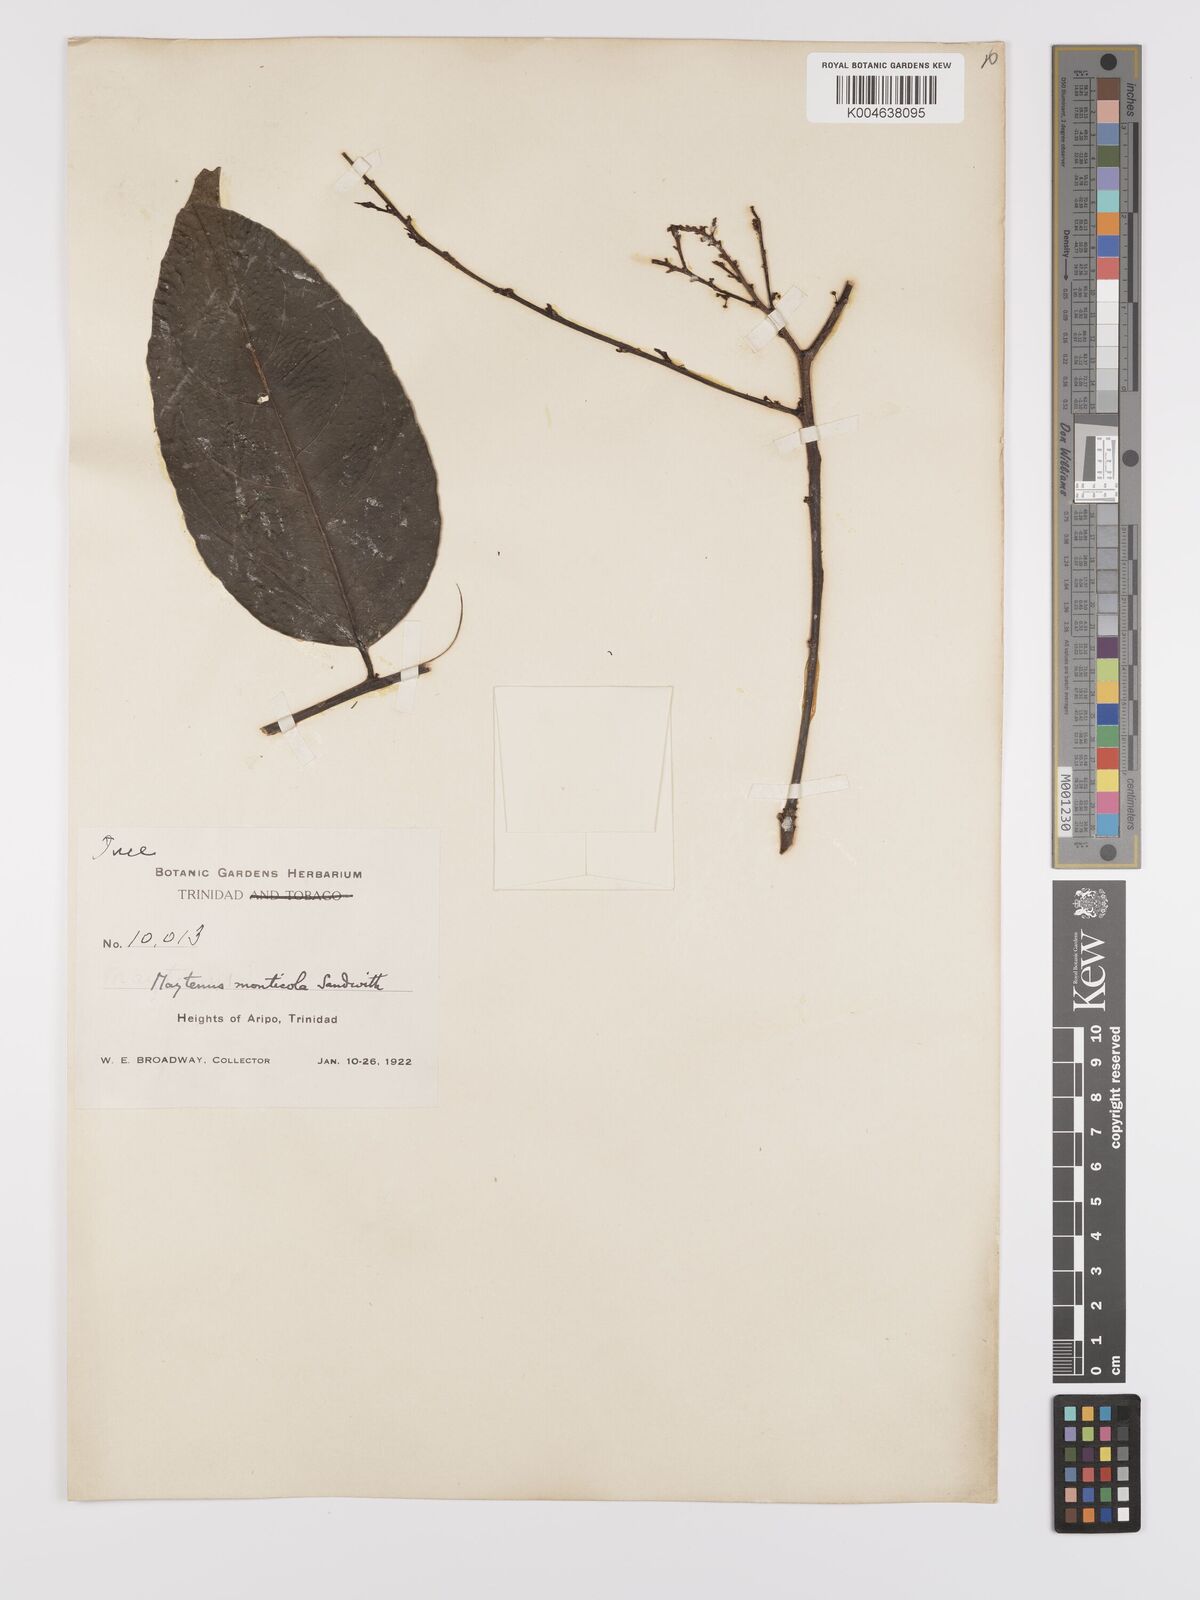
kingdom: Plantae
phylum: Tracheophyta
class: Magnoliopsida
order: Celastrales
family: Celastraceae
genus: Monteverdia
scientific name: Monteverdia monticola
